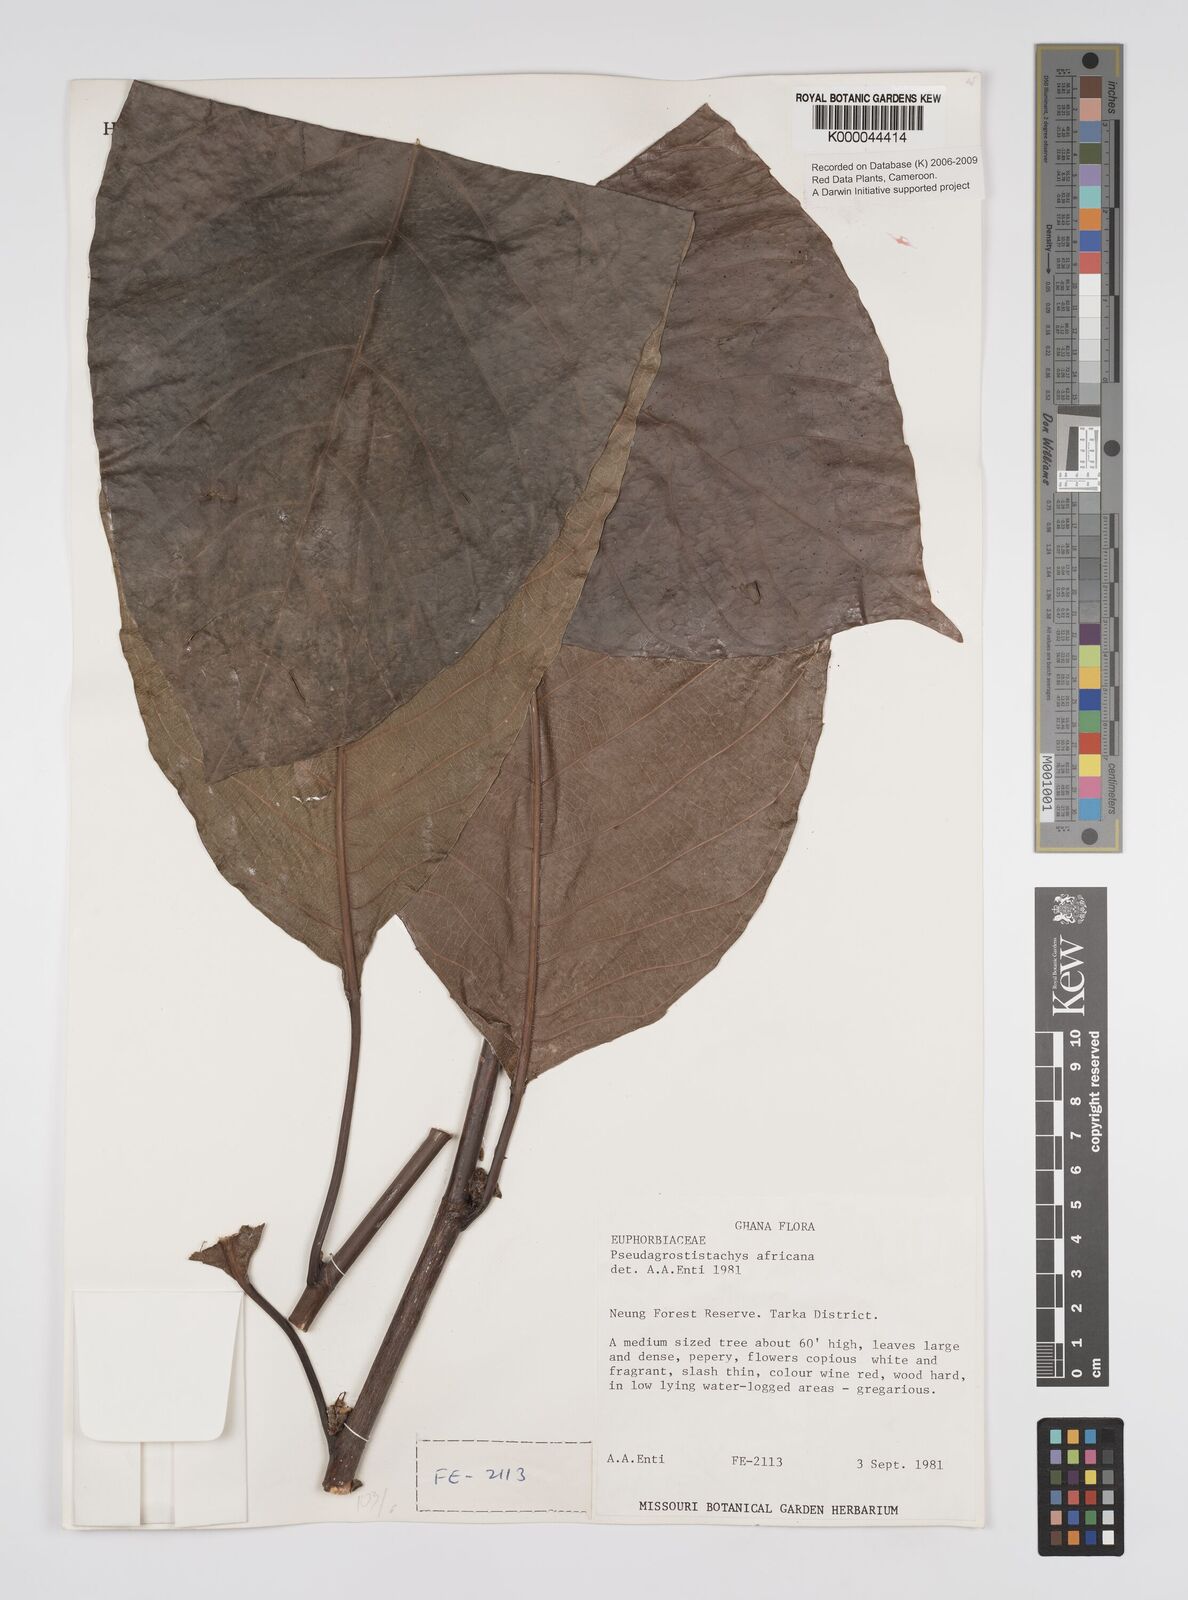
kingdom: Plantae
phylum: Tracheophyta
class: Magnoliopsida
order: Malpighiales
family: Euphorbiaceae
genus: Pseudagrostistachys
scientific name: Pseudagrostistachys
